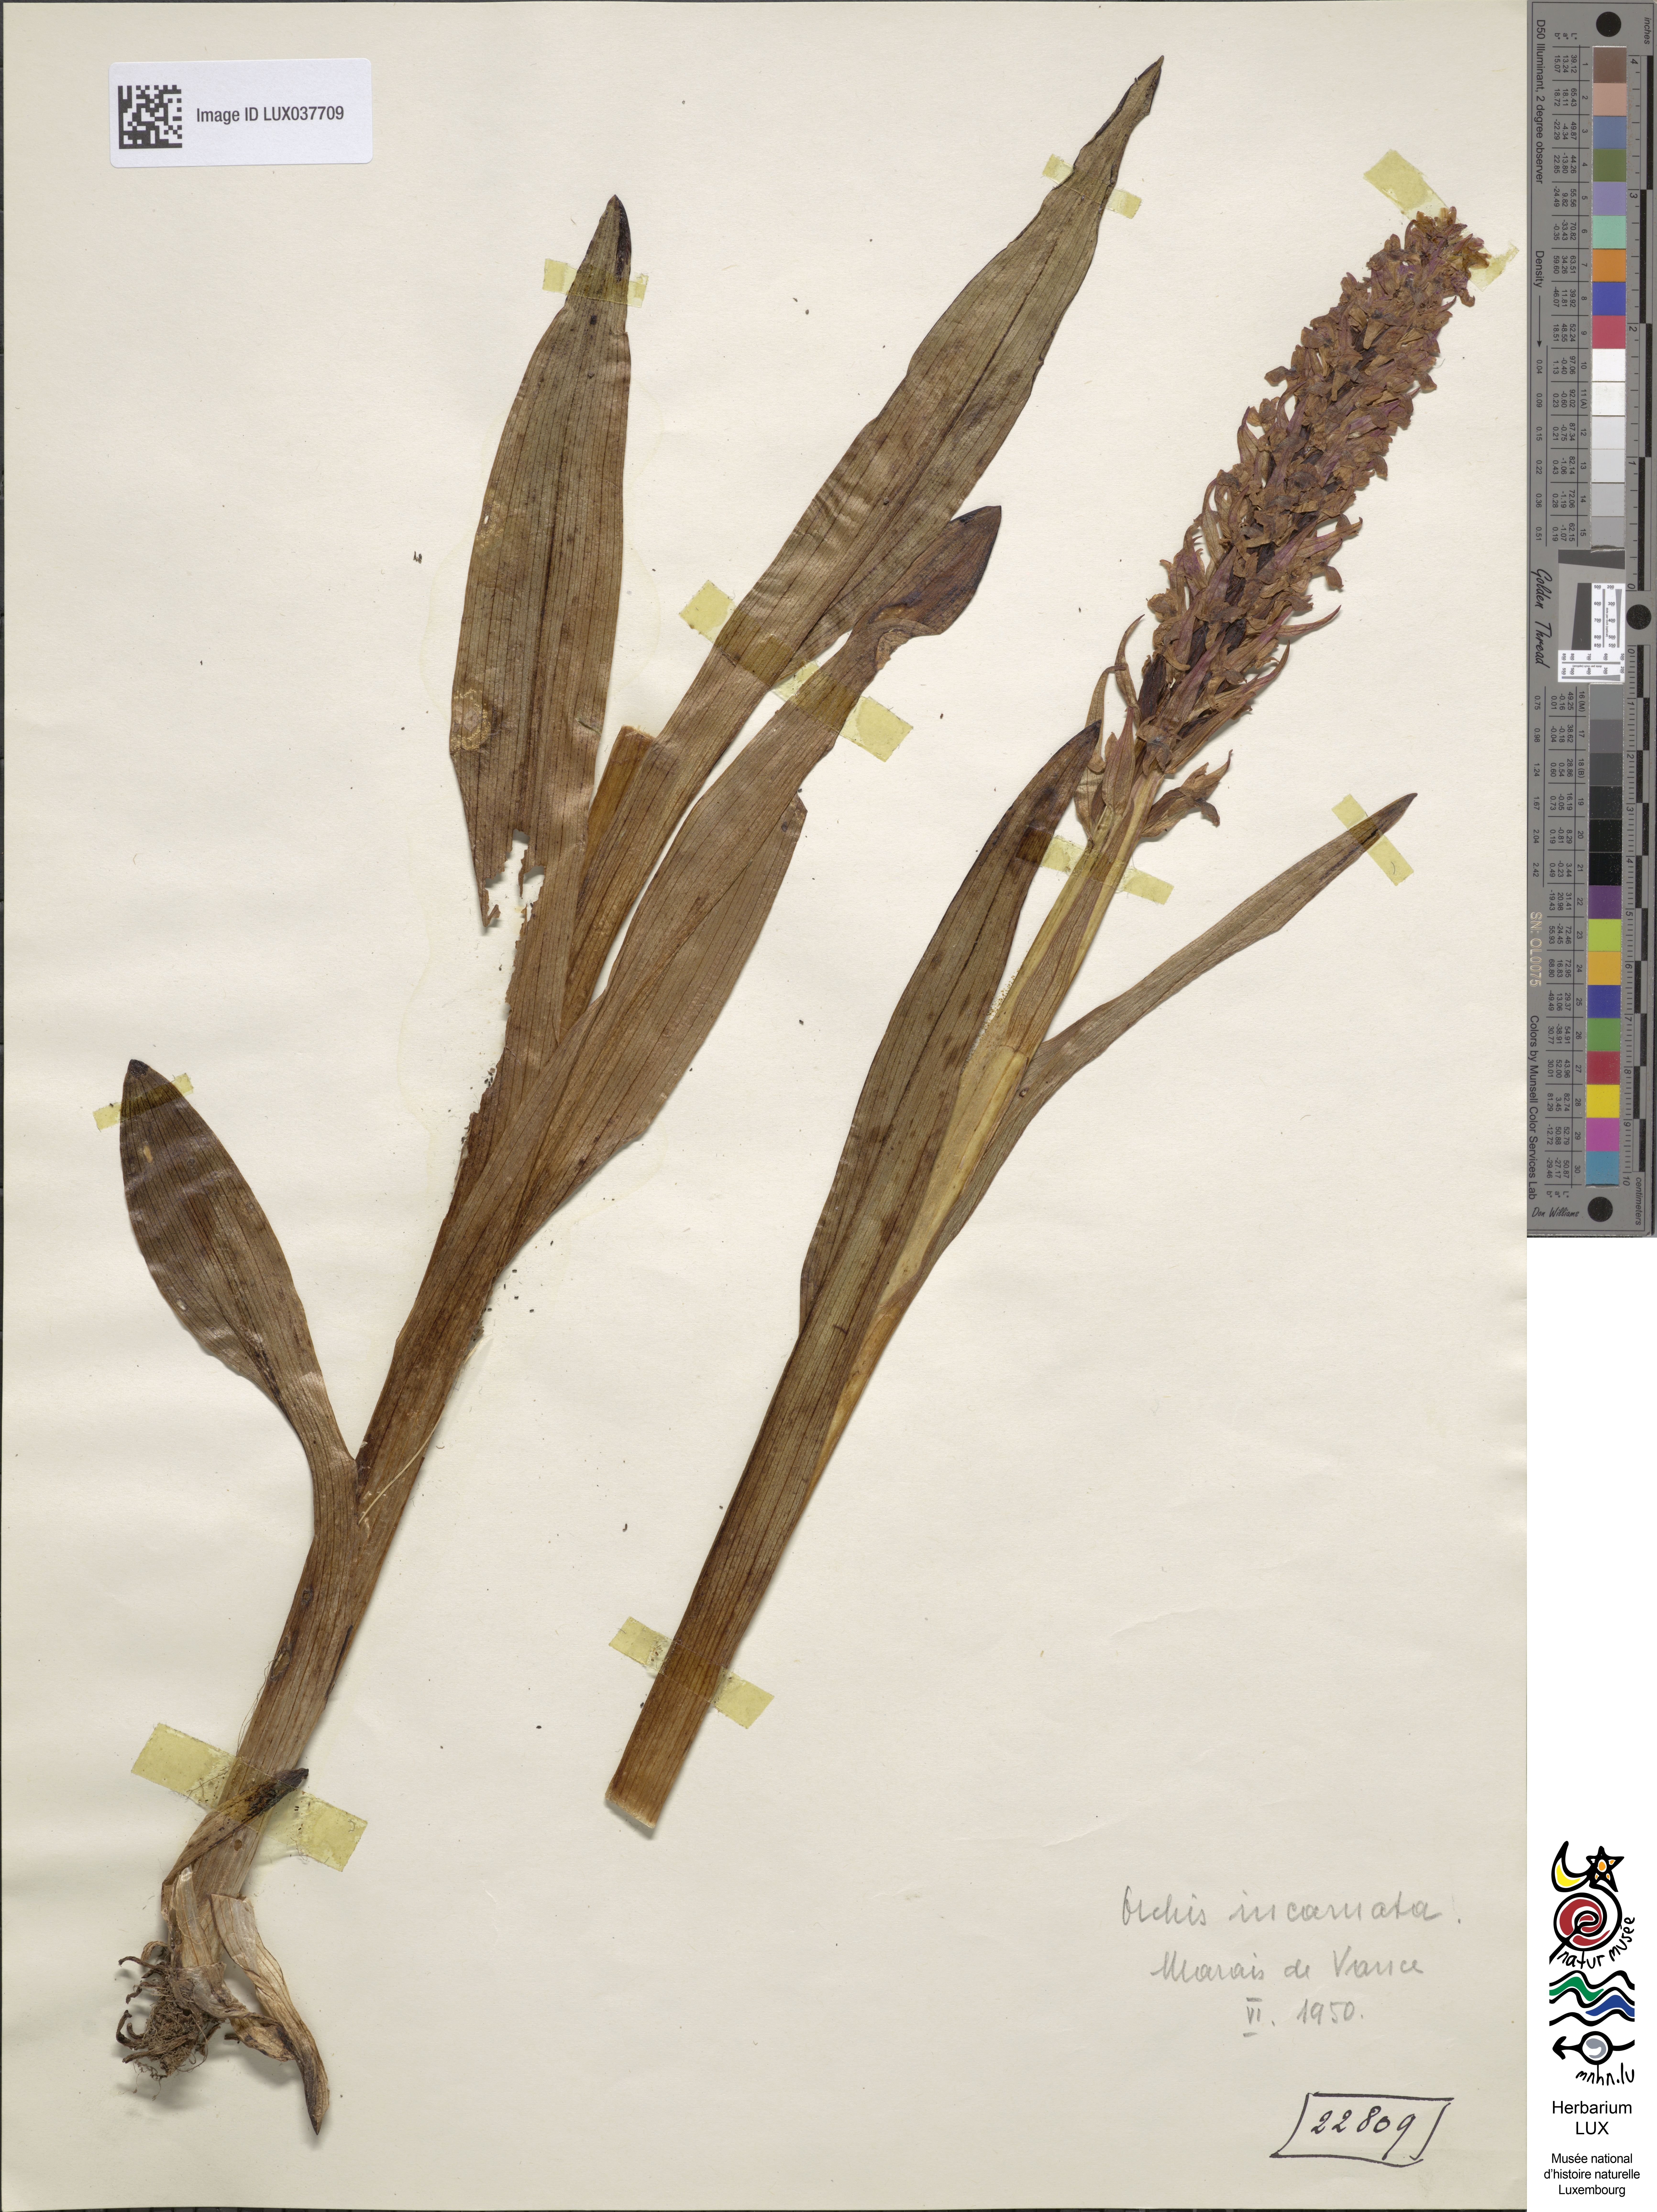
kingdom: Plantae
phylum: Tracheophyta
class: Liliopsida
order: Asparagales
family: Orchidaceae
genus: Dactylorhiza
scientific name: Dactylorhiza incarnata
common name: Early marsh-orchid
